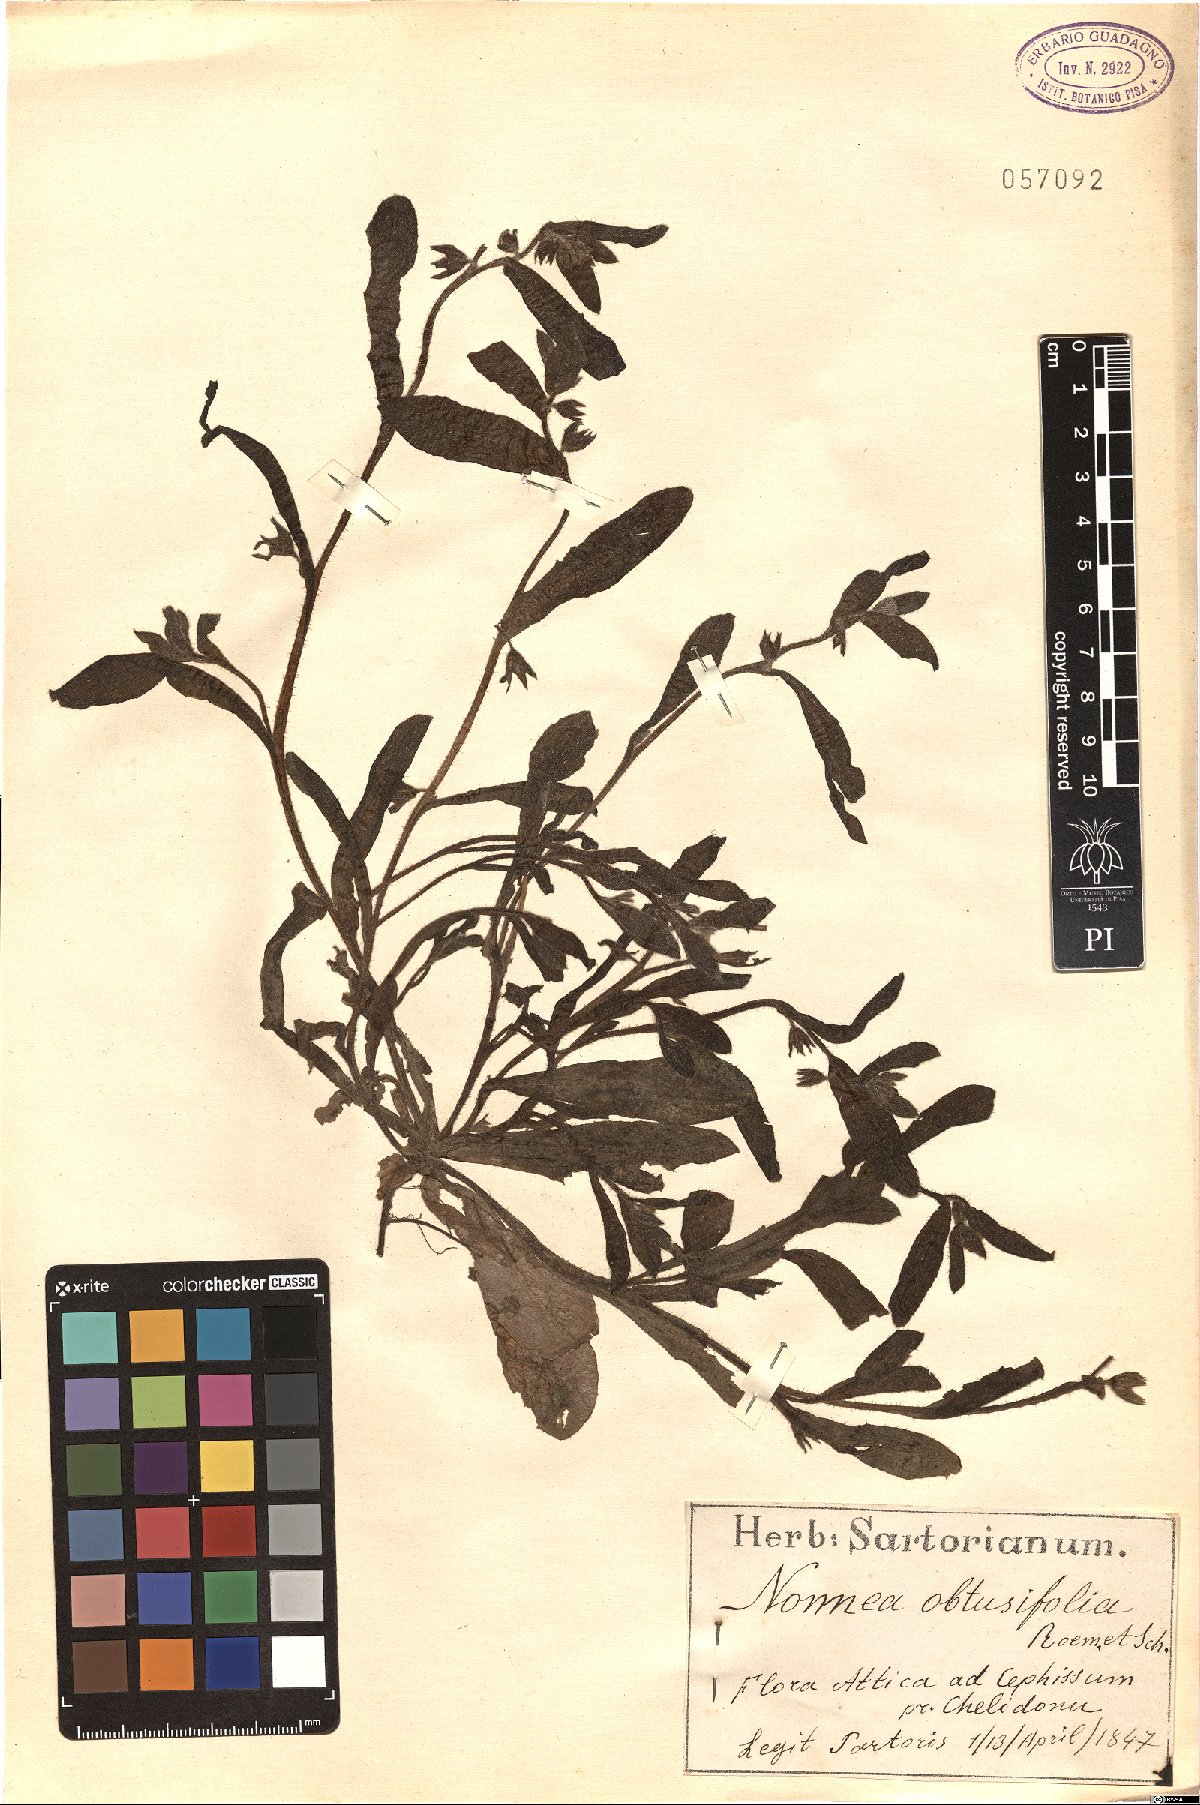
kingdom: Plantae
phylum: Tracheophyta
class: Magnoliopsida
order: Boraginales
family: Boraginaceae
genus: Melanortocarya
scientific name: Melanortocarya obtusifolia
